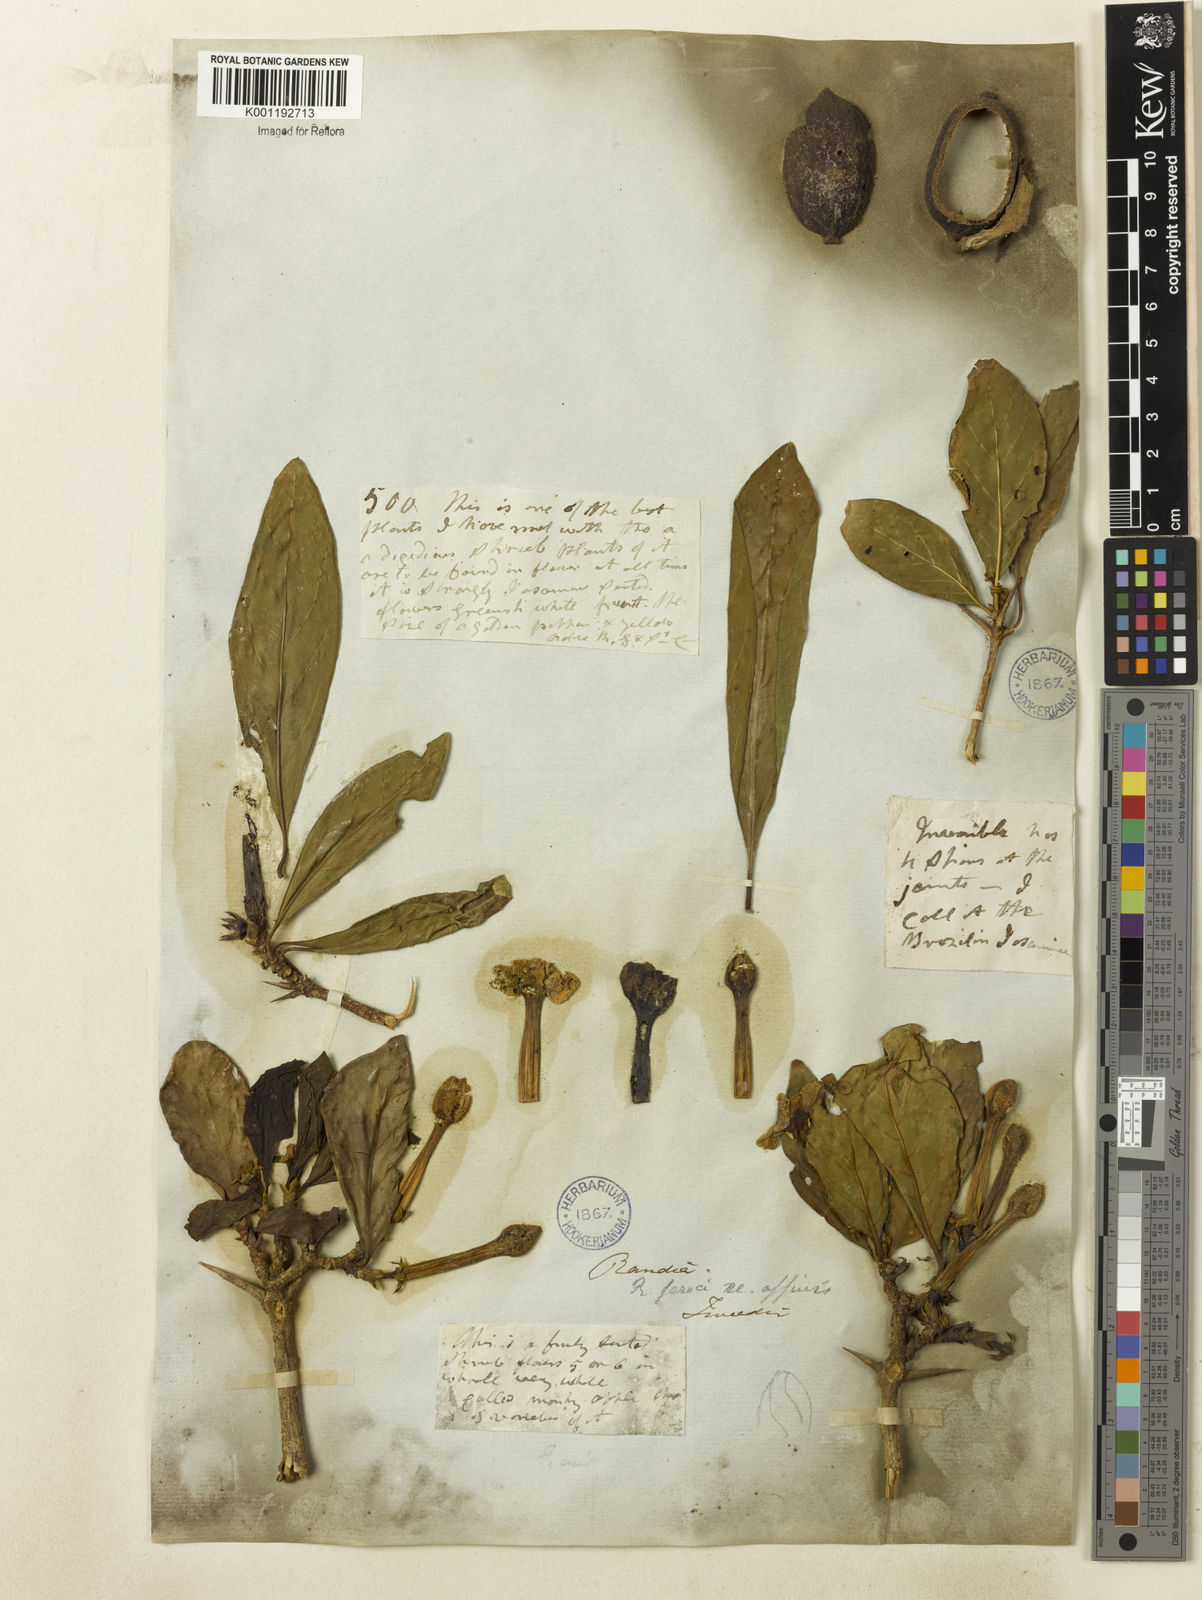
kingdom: Plantae
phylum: Tracheophyta
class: Magnoliopsida
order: Gentianales
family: Rubiaceae
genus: Randia
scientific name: Randia nitida
